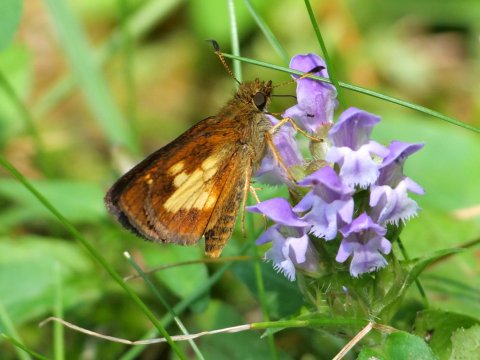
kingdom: Animalia
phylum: Arthropoda
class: Insecta
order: Lepidoptera
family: Hesperiidae
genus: Poanes
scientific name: Poanes massasoit
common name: Mulberry Wing
